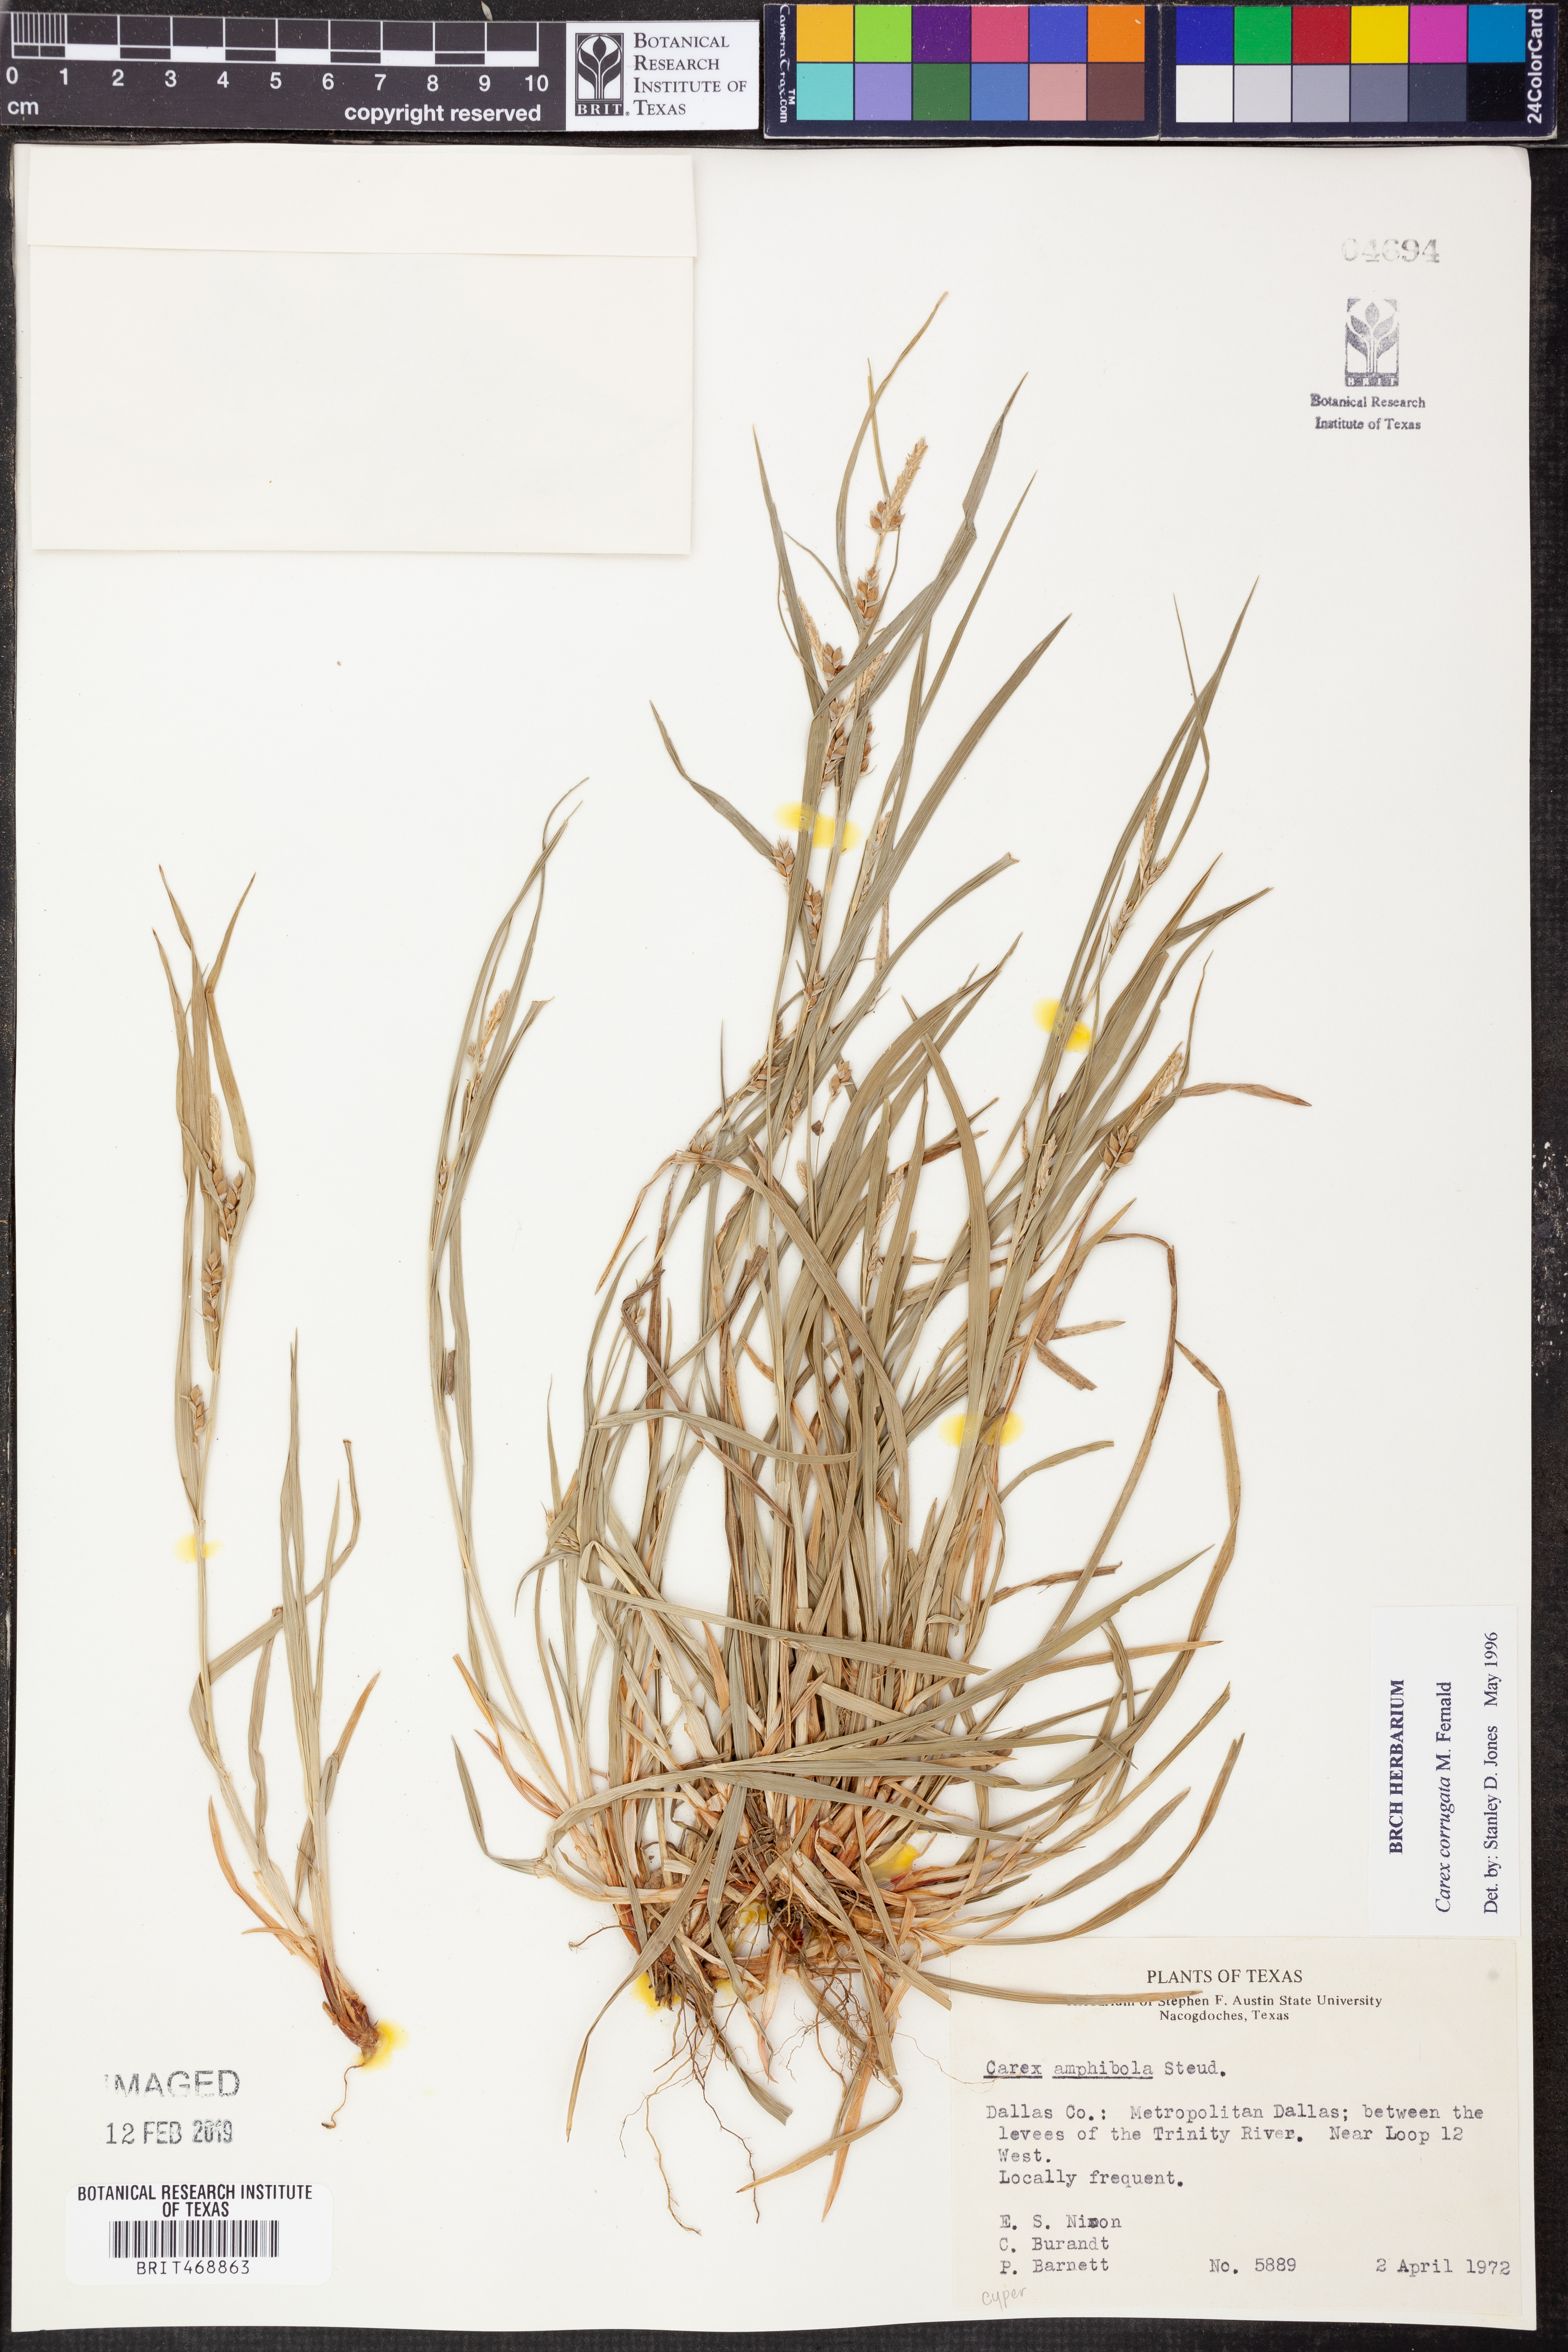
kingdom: Plantae
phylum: Tracheophyta
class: Liliopsida
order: Poales
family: Cyperaceae
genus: Carex
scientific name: Carex corrugata
